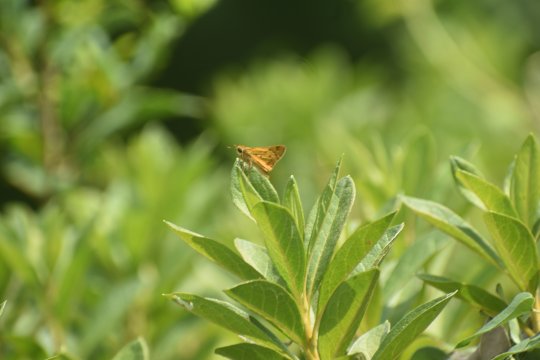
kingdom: Animalia
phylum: Arthropoda
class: Insecta
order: Lepidoptera
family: Hesperiidae
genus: Hylephila
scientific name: Hylephila phyleus
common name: Fiery Skipper
